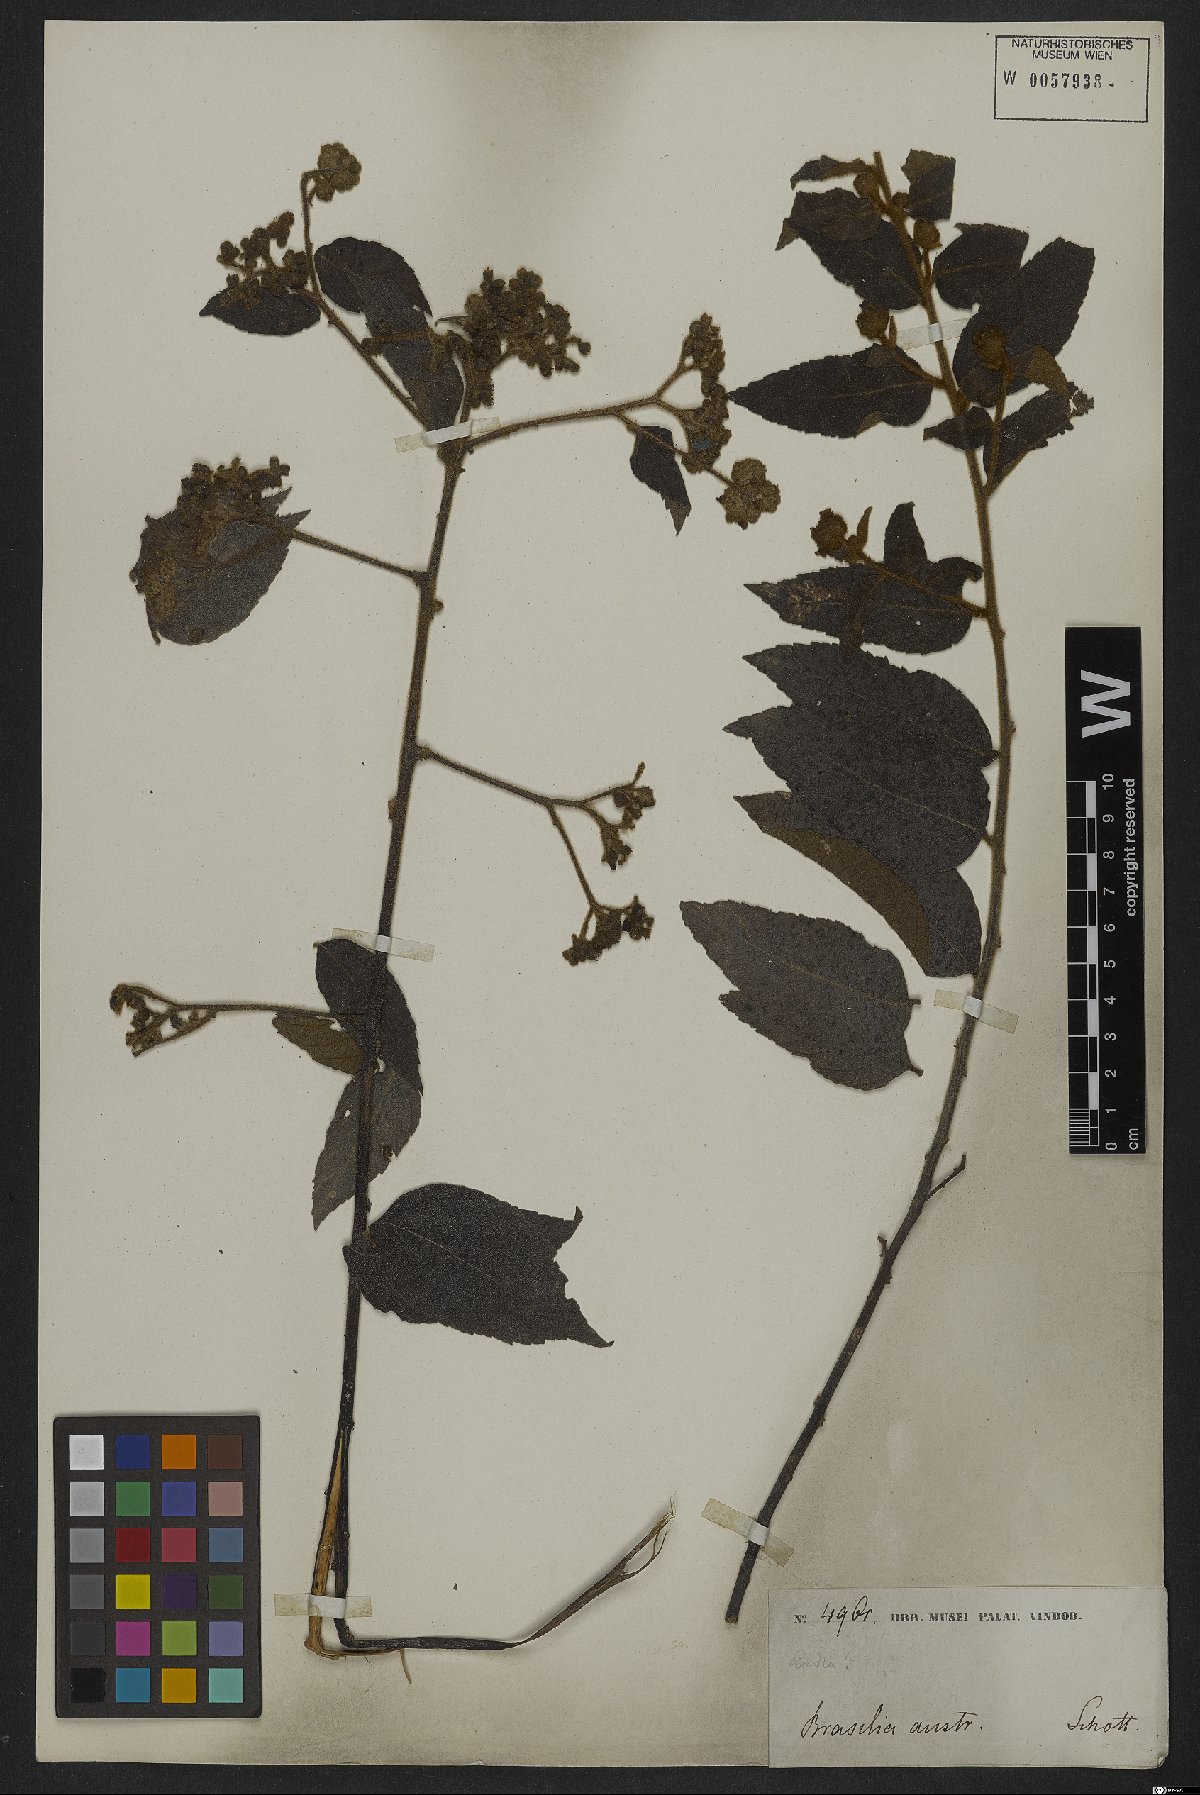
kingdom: Plantae
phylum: Tracheophyta
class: Magnoliopsida
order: Boraginales
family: Cordiaceae
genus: Varronia
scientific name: Varronia polycephala
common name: Black-sage
